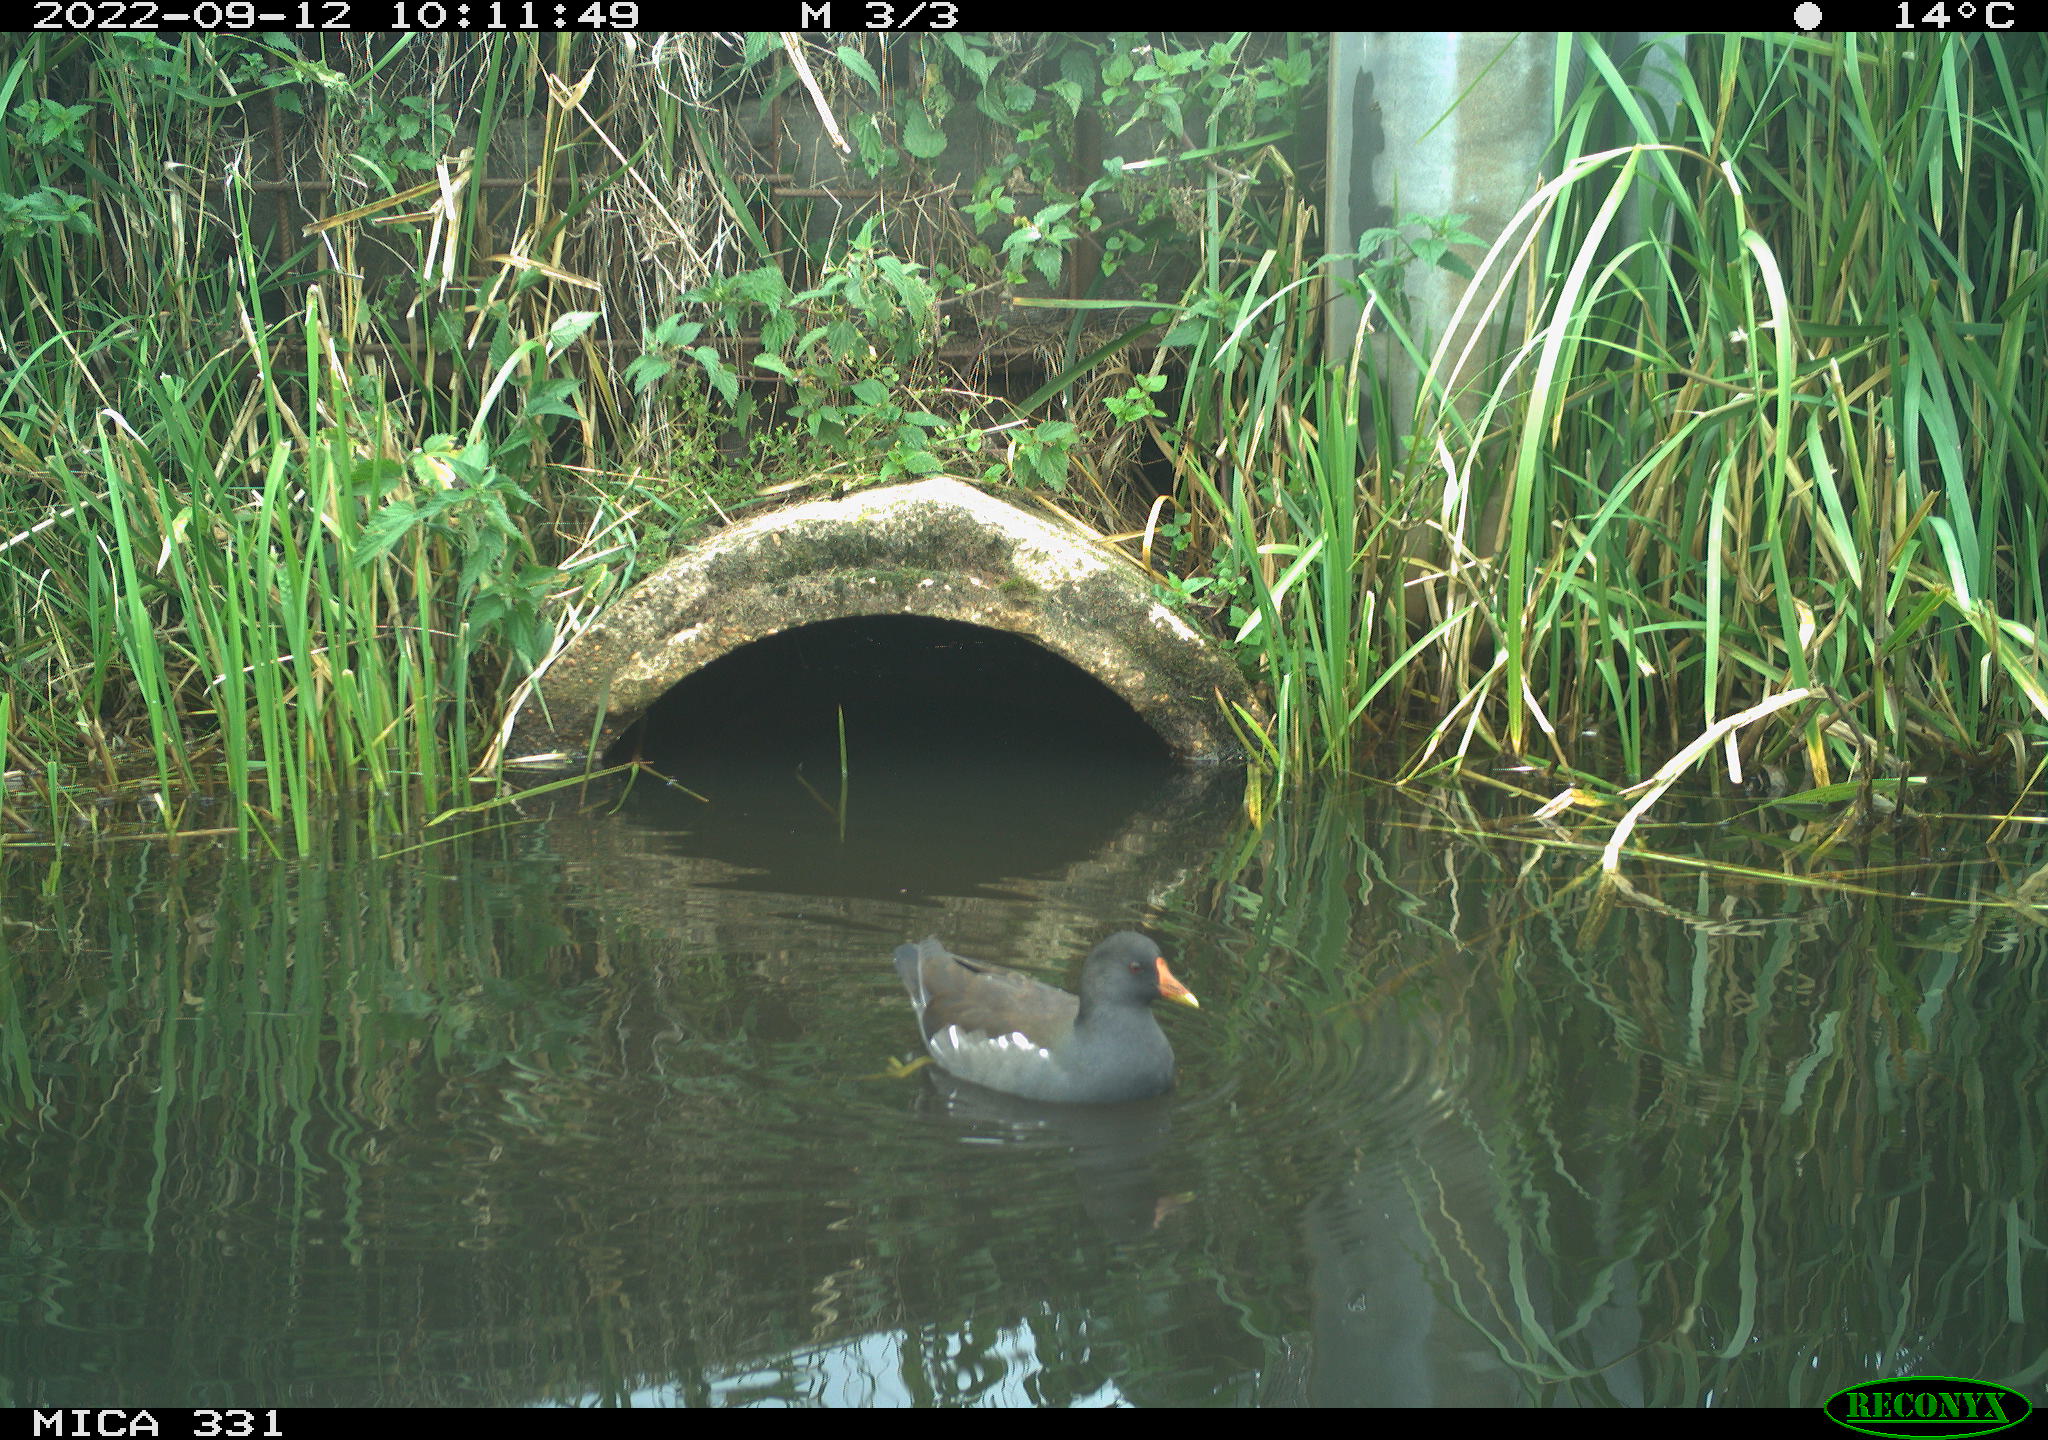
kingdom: Animalia
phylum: Chordata
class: Aves
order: Gruiformes
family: Rallidae
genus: Gallinula
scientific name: Gallinula chloropus
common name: Common moorhen
